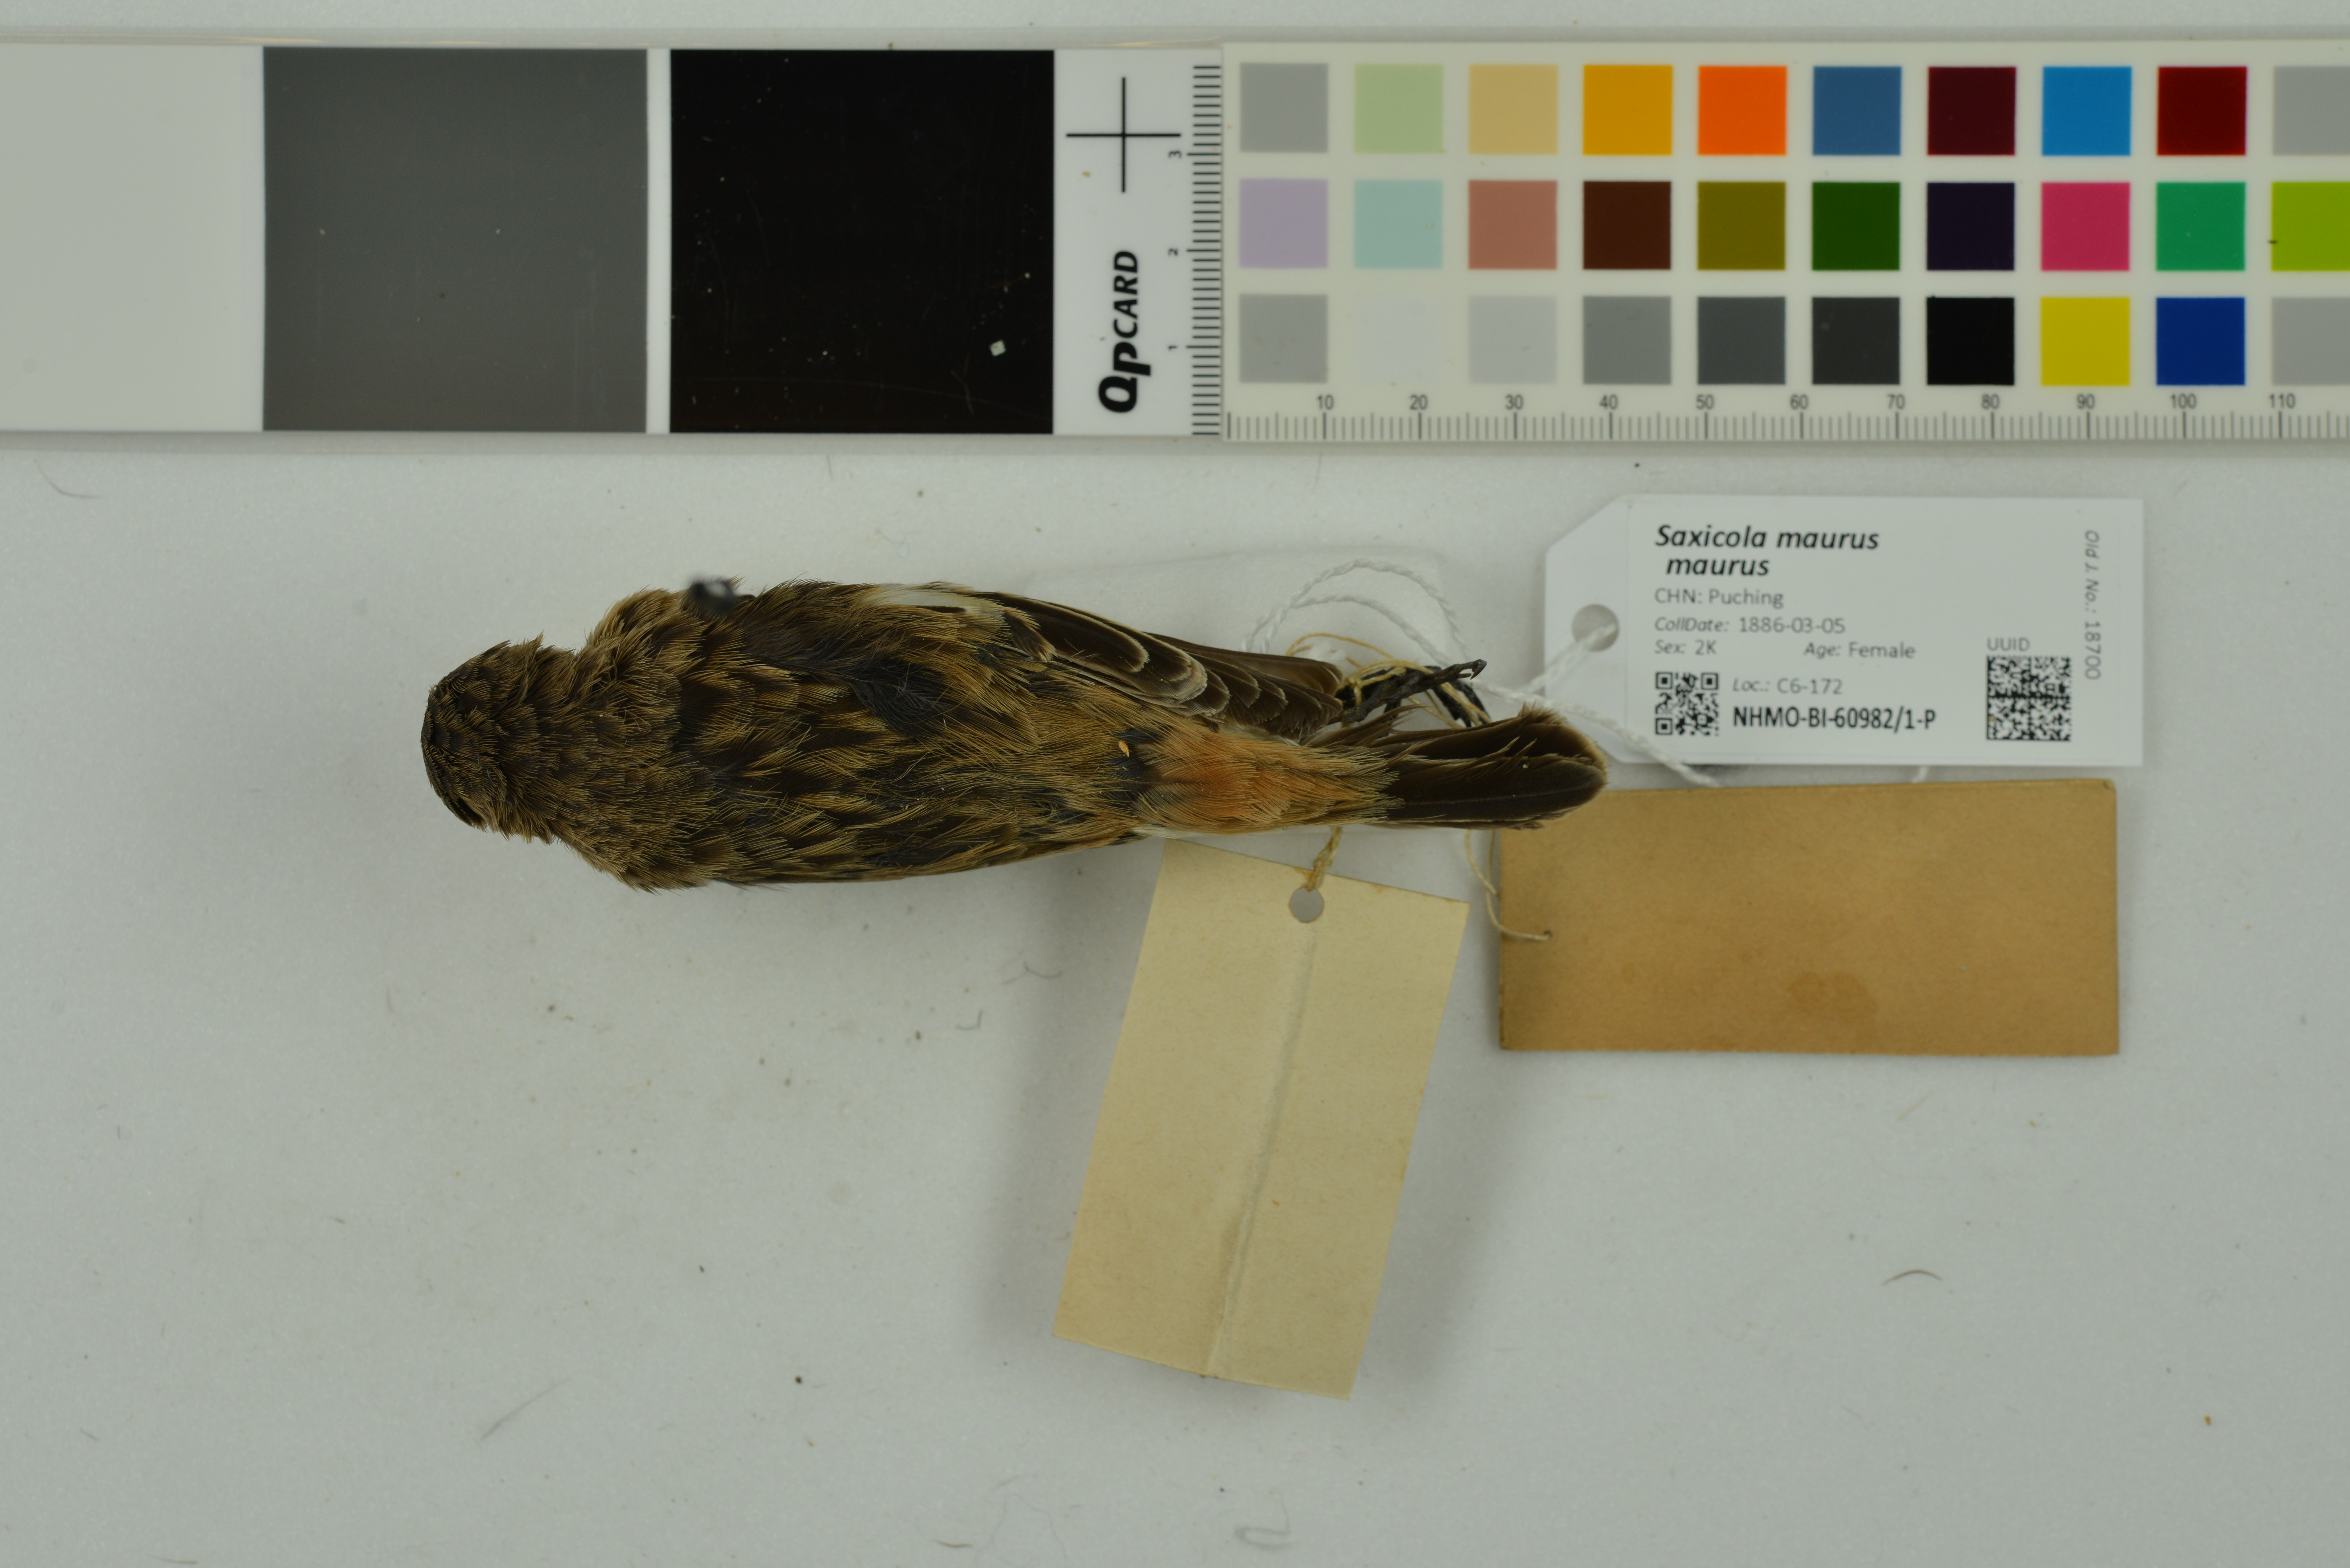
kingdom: Animalia
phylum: Chordata
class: Aves
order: Passeriformes
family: Muscicapidae
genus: Saxicola
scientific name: Saxicola maurus
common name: Siberian stonechat
